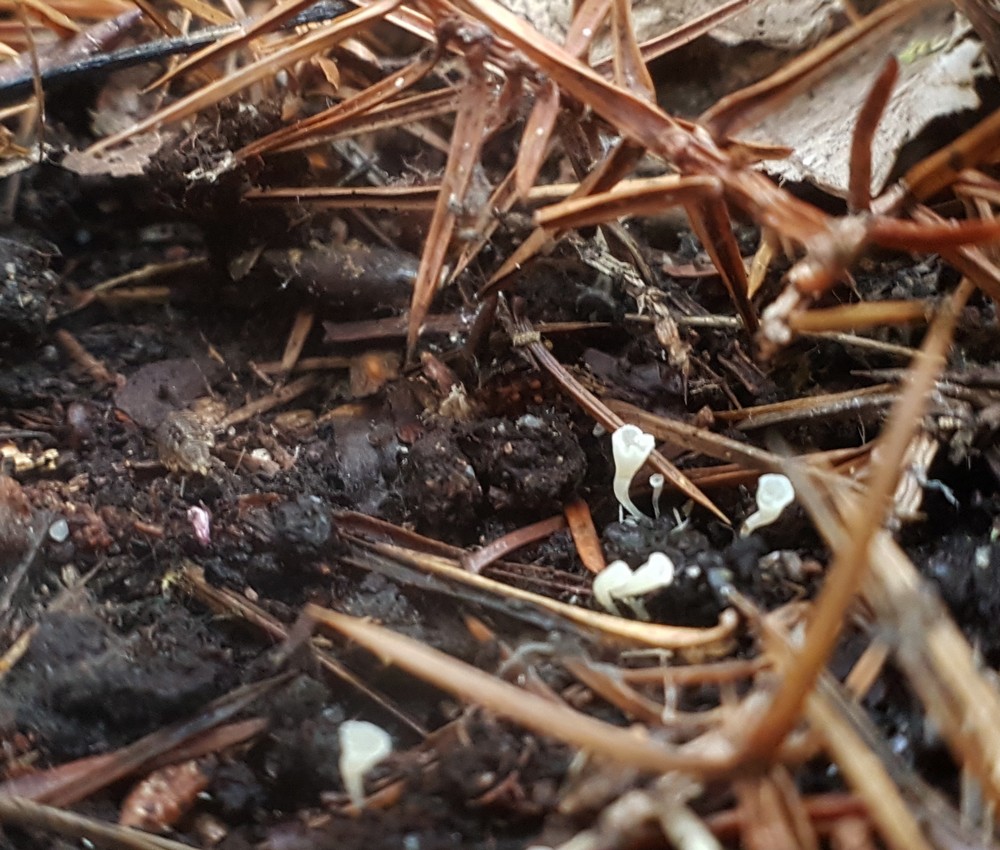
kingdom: Fungi
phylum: Basidiomycota
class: Agaricomycetes
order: Agaricales
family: Clavariaceae
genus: Clavicorona
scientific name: Clavicorona taxophila
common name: trompetkølle
